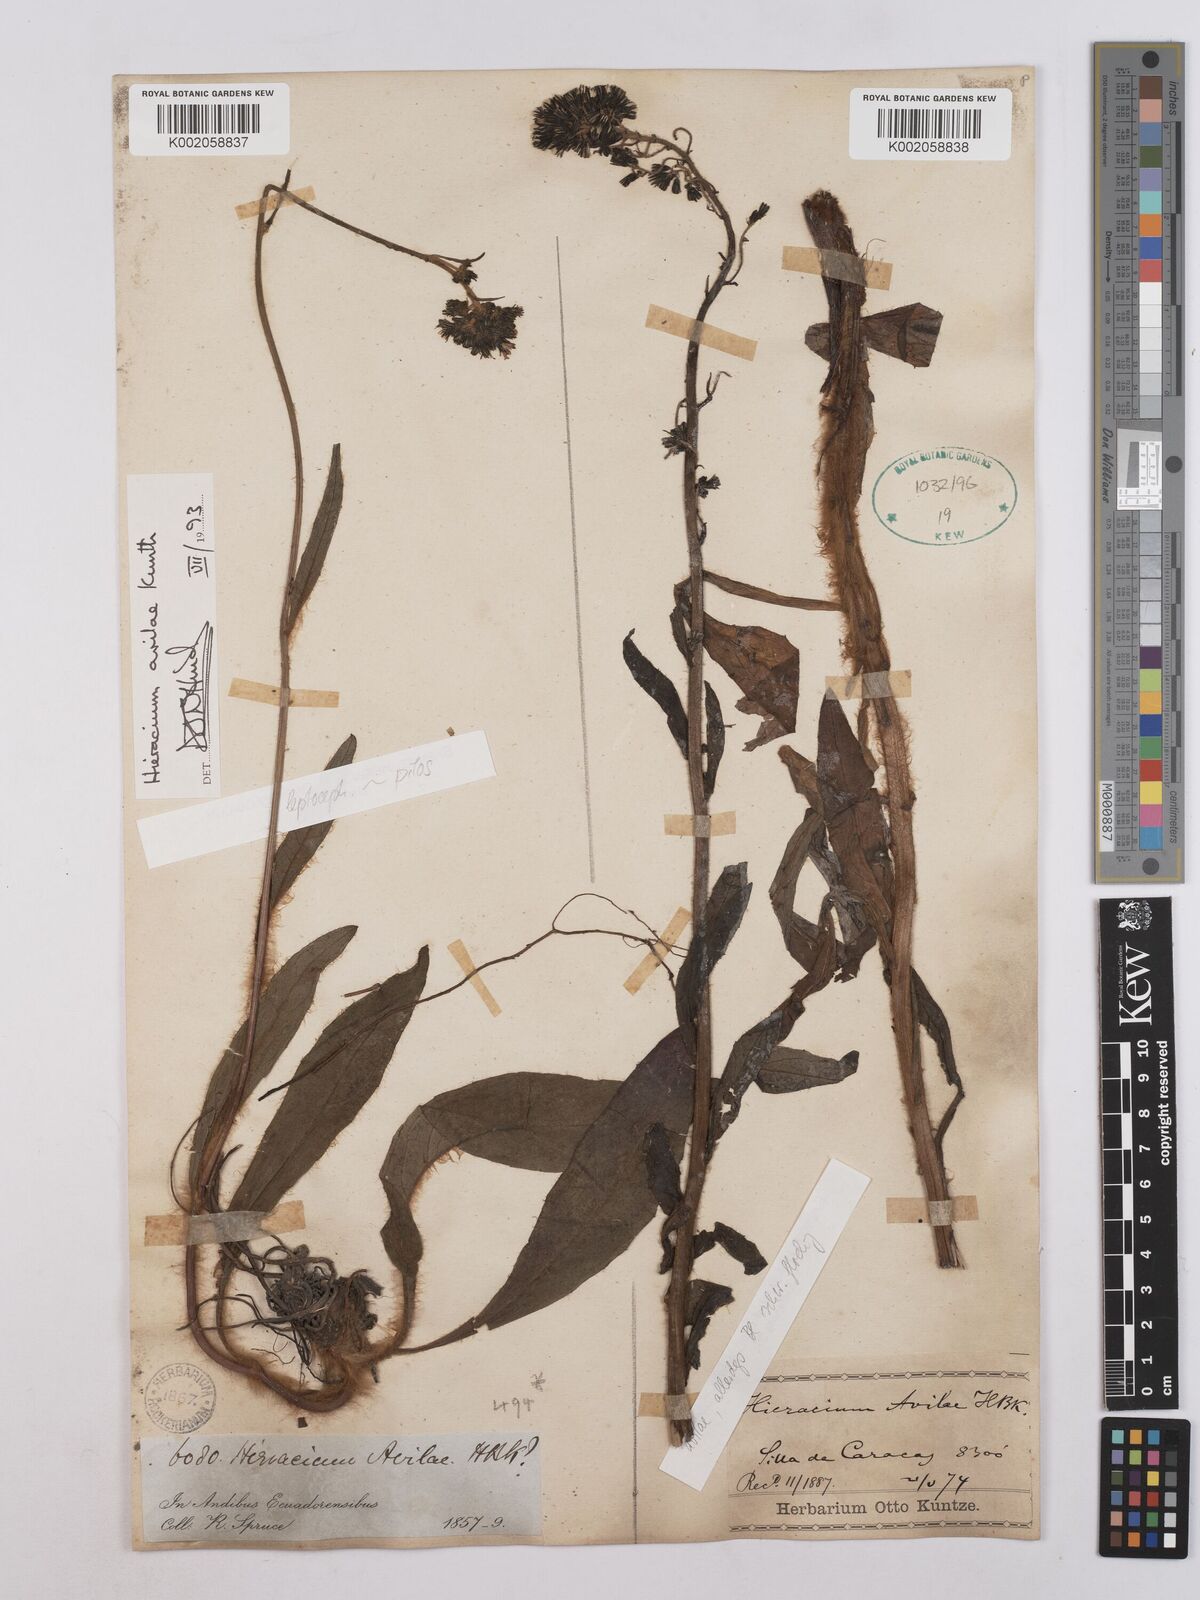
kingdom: Plantae
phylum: Tracheophyta
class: Magnoliopsida
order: Asterales
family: Asteraceae
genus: Hieracium
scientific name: Hieracium avilae
